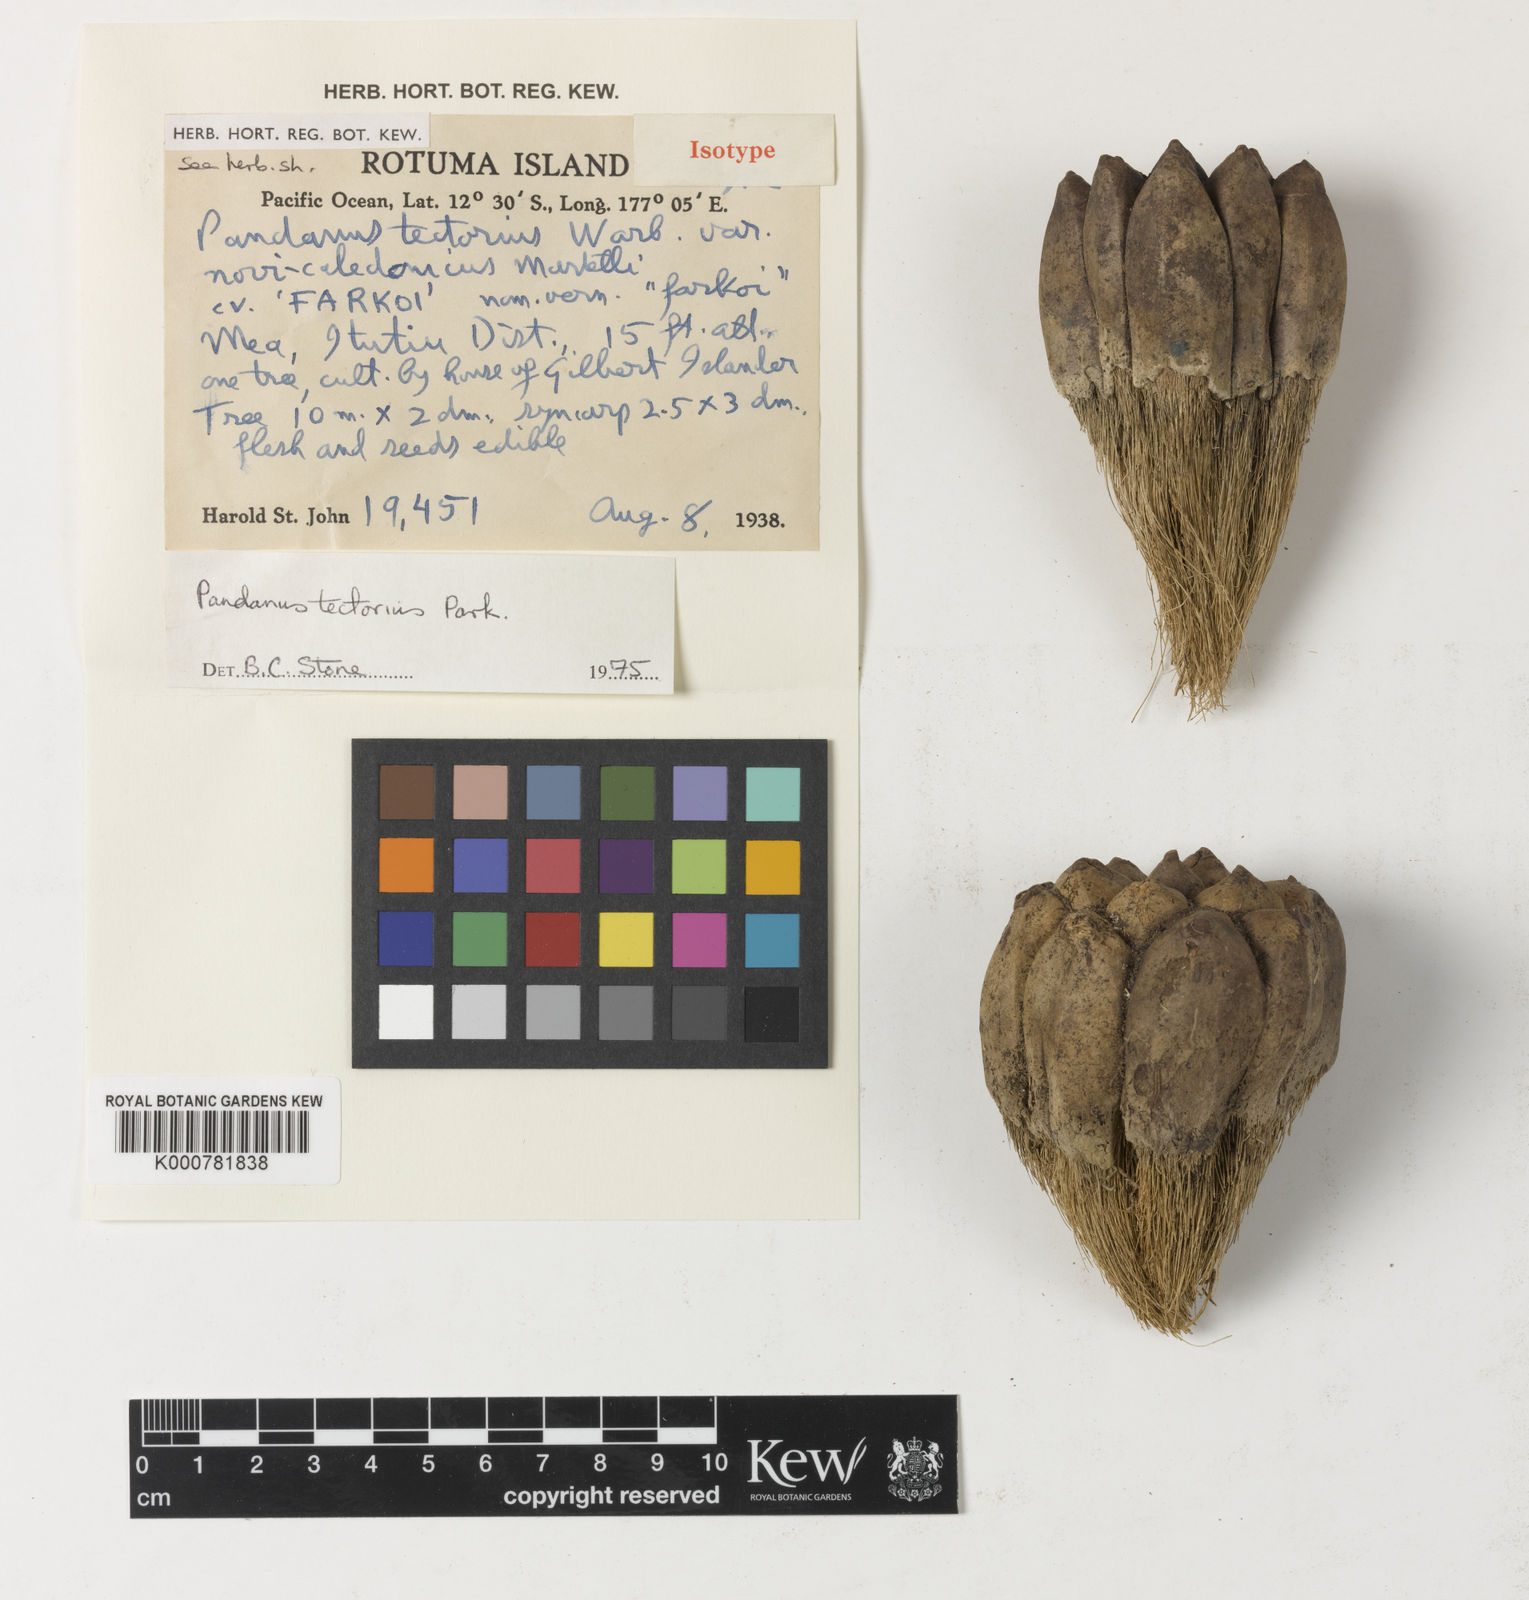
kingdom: Plantae
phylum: Tracheophyta
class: Liliopsida
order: Pandanales
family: Pandanaceae
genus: Pandanus
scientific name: Pandanus
